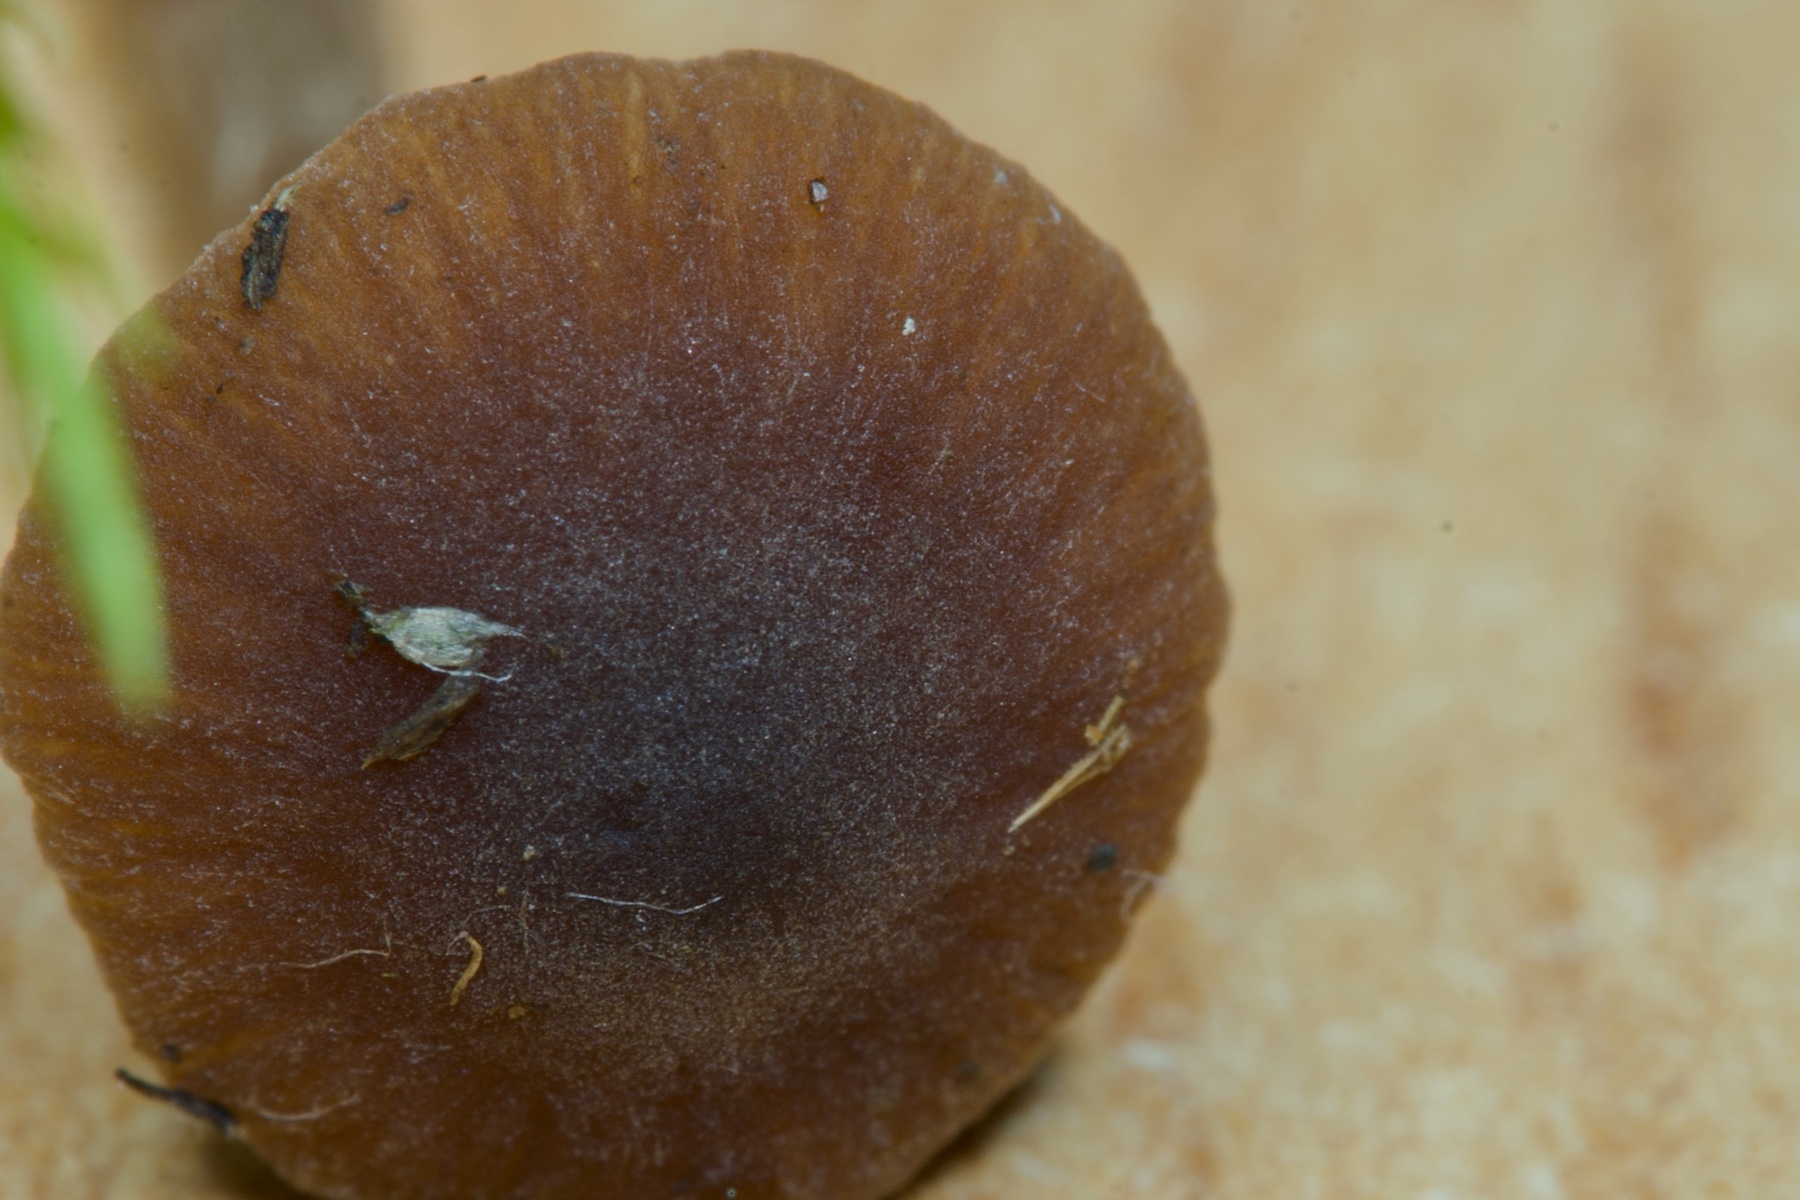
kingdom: Fungi
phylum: Basidiomycota
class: Agaricomycetes
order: Agaricales
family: Hymenogastraceae
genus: Naucoria
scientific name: Naucoria salicis
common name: teglbrun knaphat
